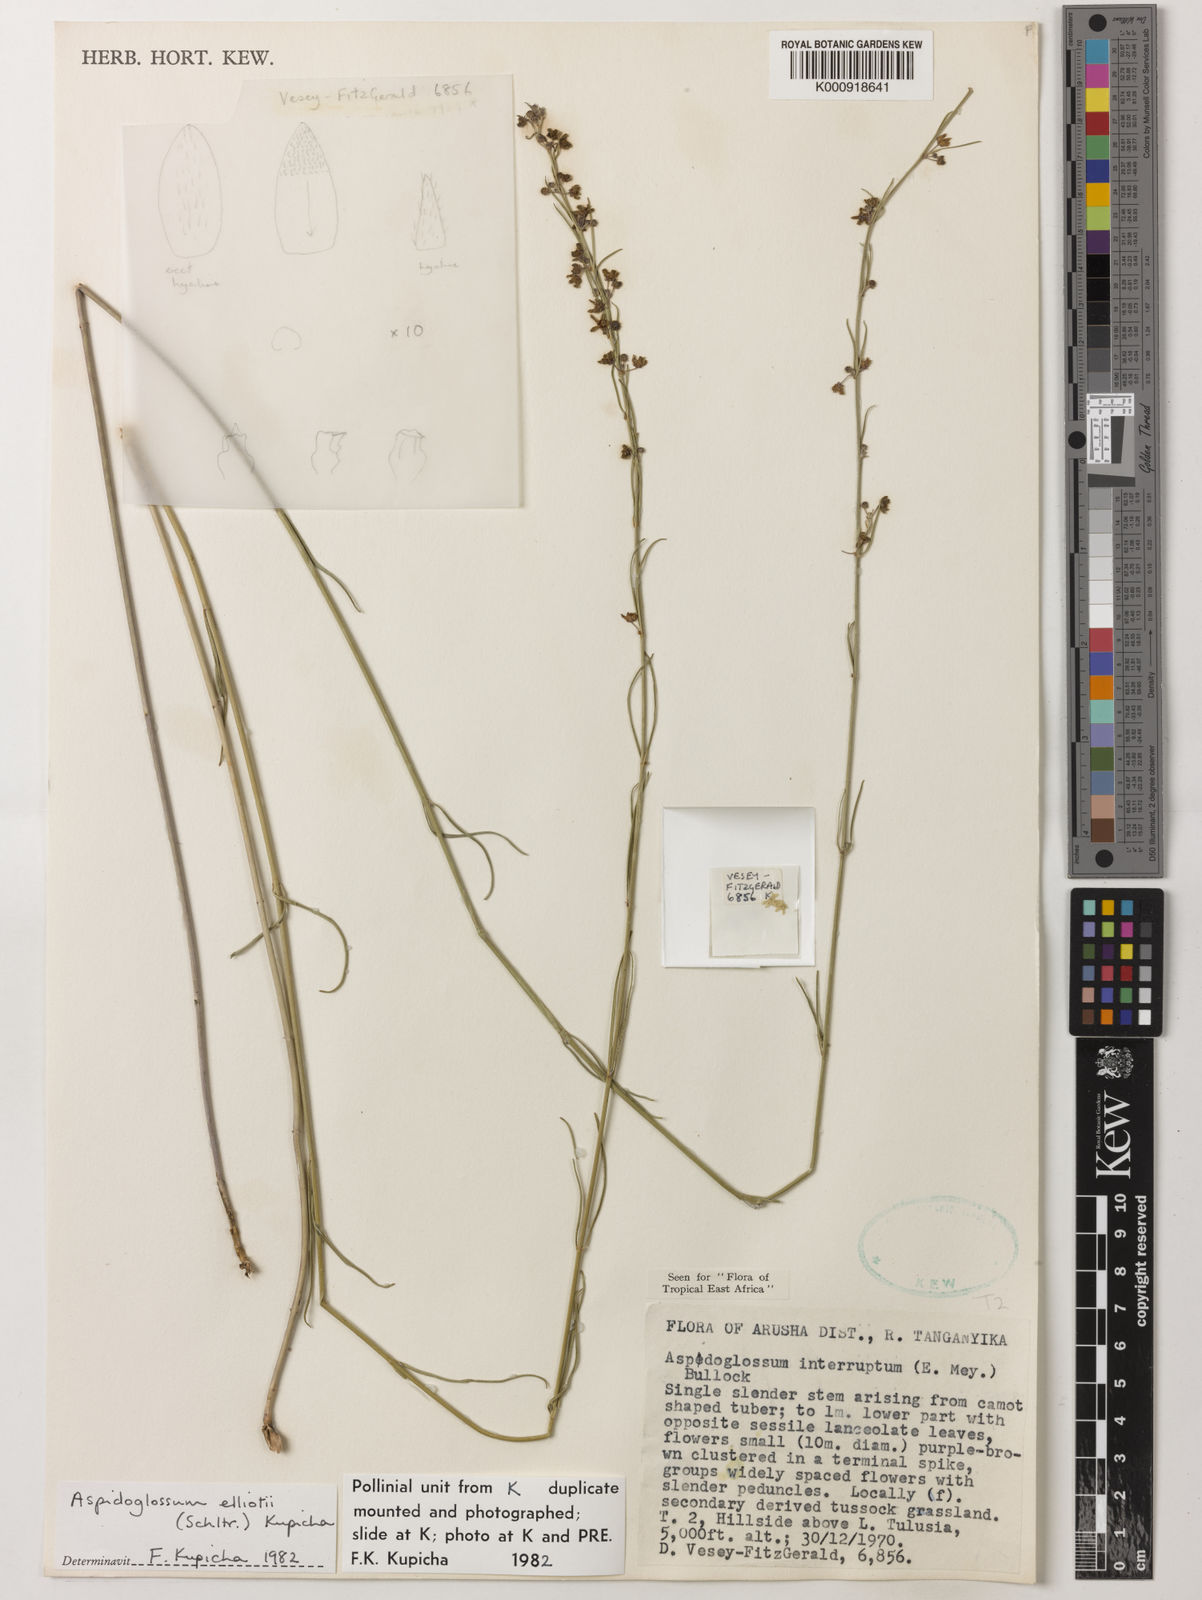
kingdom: Plantae
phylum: Tracheophyta
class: Magnoliopsida
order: Gentianales
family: Apocynaceae
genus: Aspidoglossum
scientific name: Aspidoglossum elliotii
